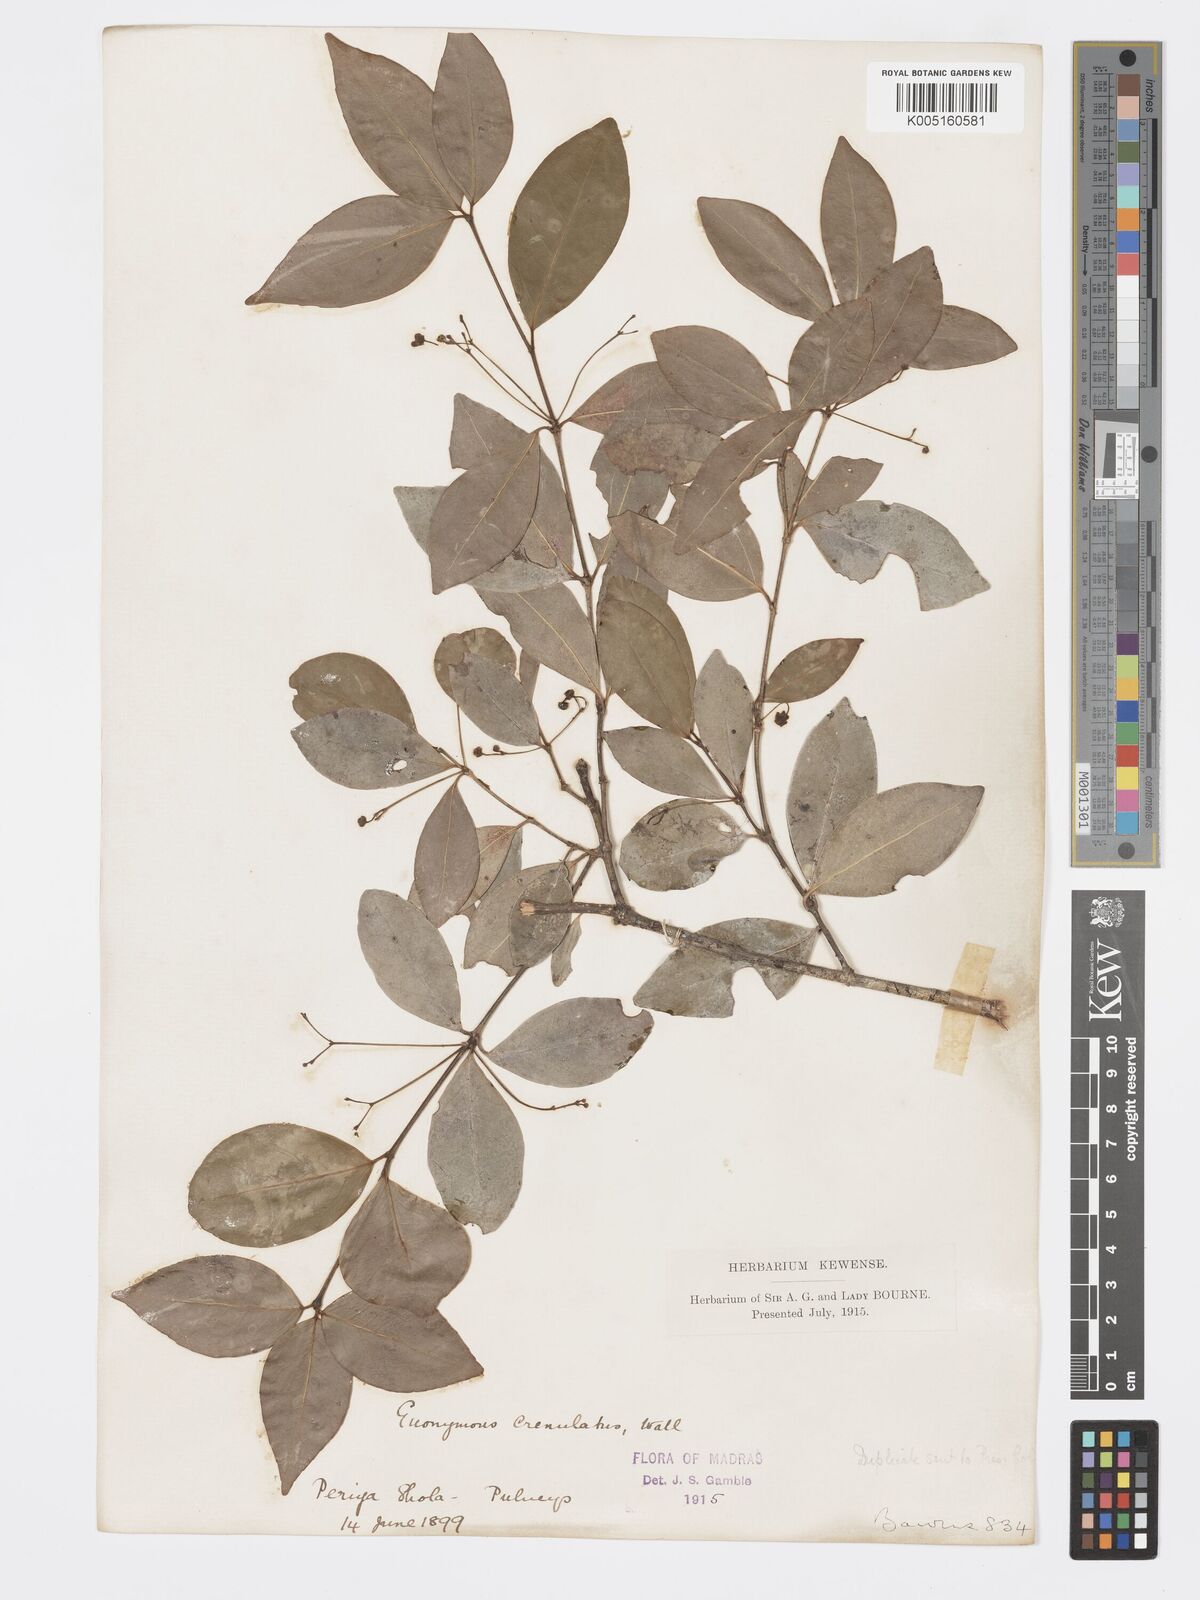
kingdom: Plantae
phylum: Tracheophyta
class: Magnoliopsida
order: Celastrales
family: Celastraceae
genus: Euonymus
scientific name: Euonymus crenulatus
